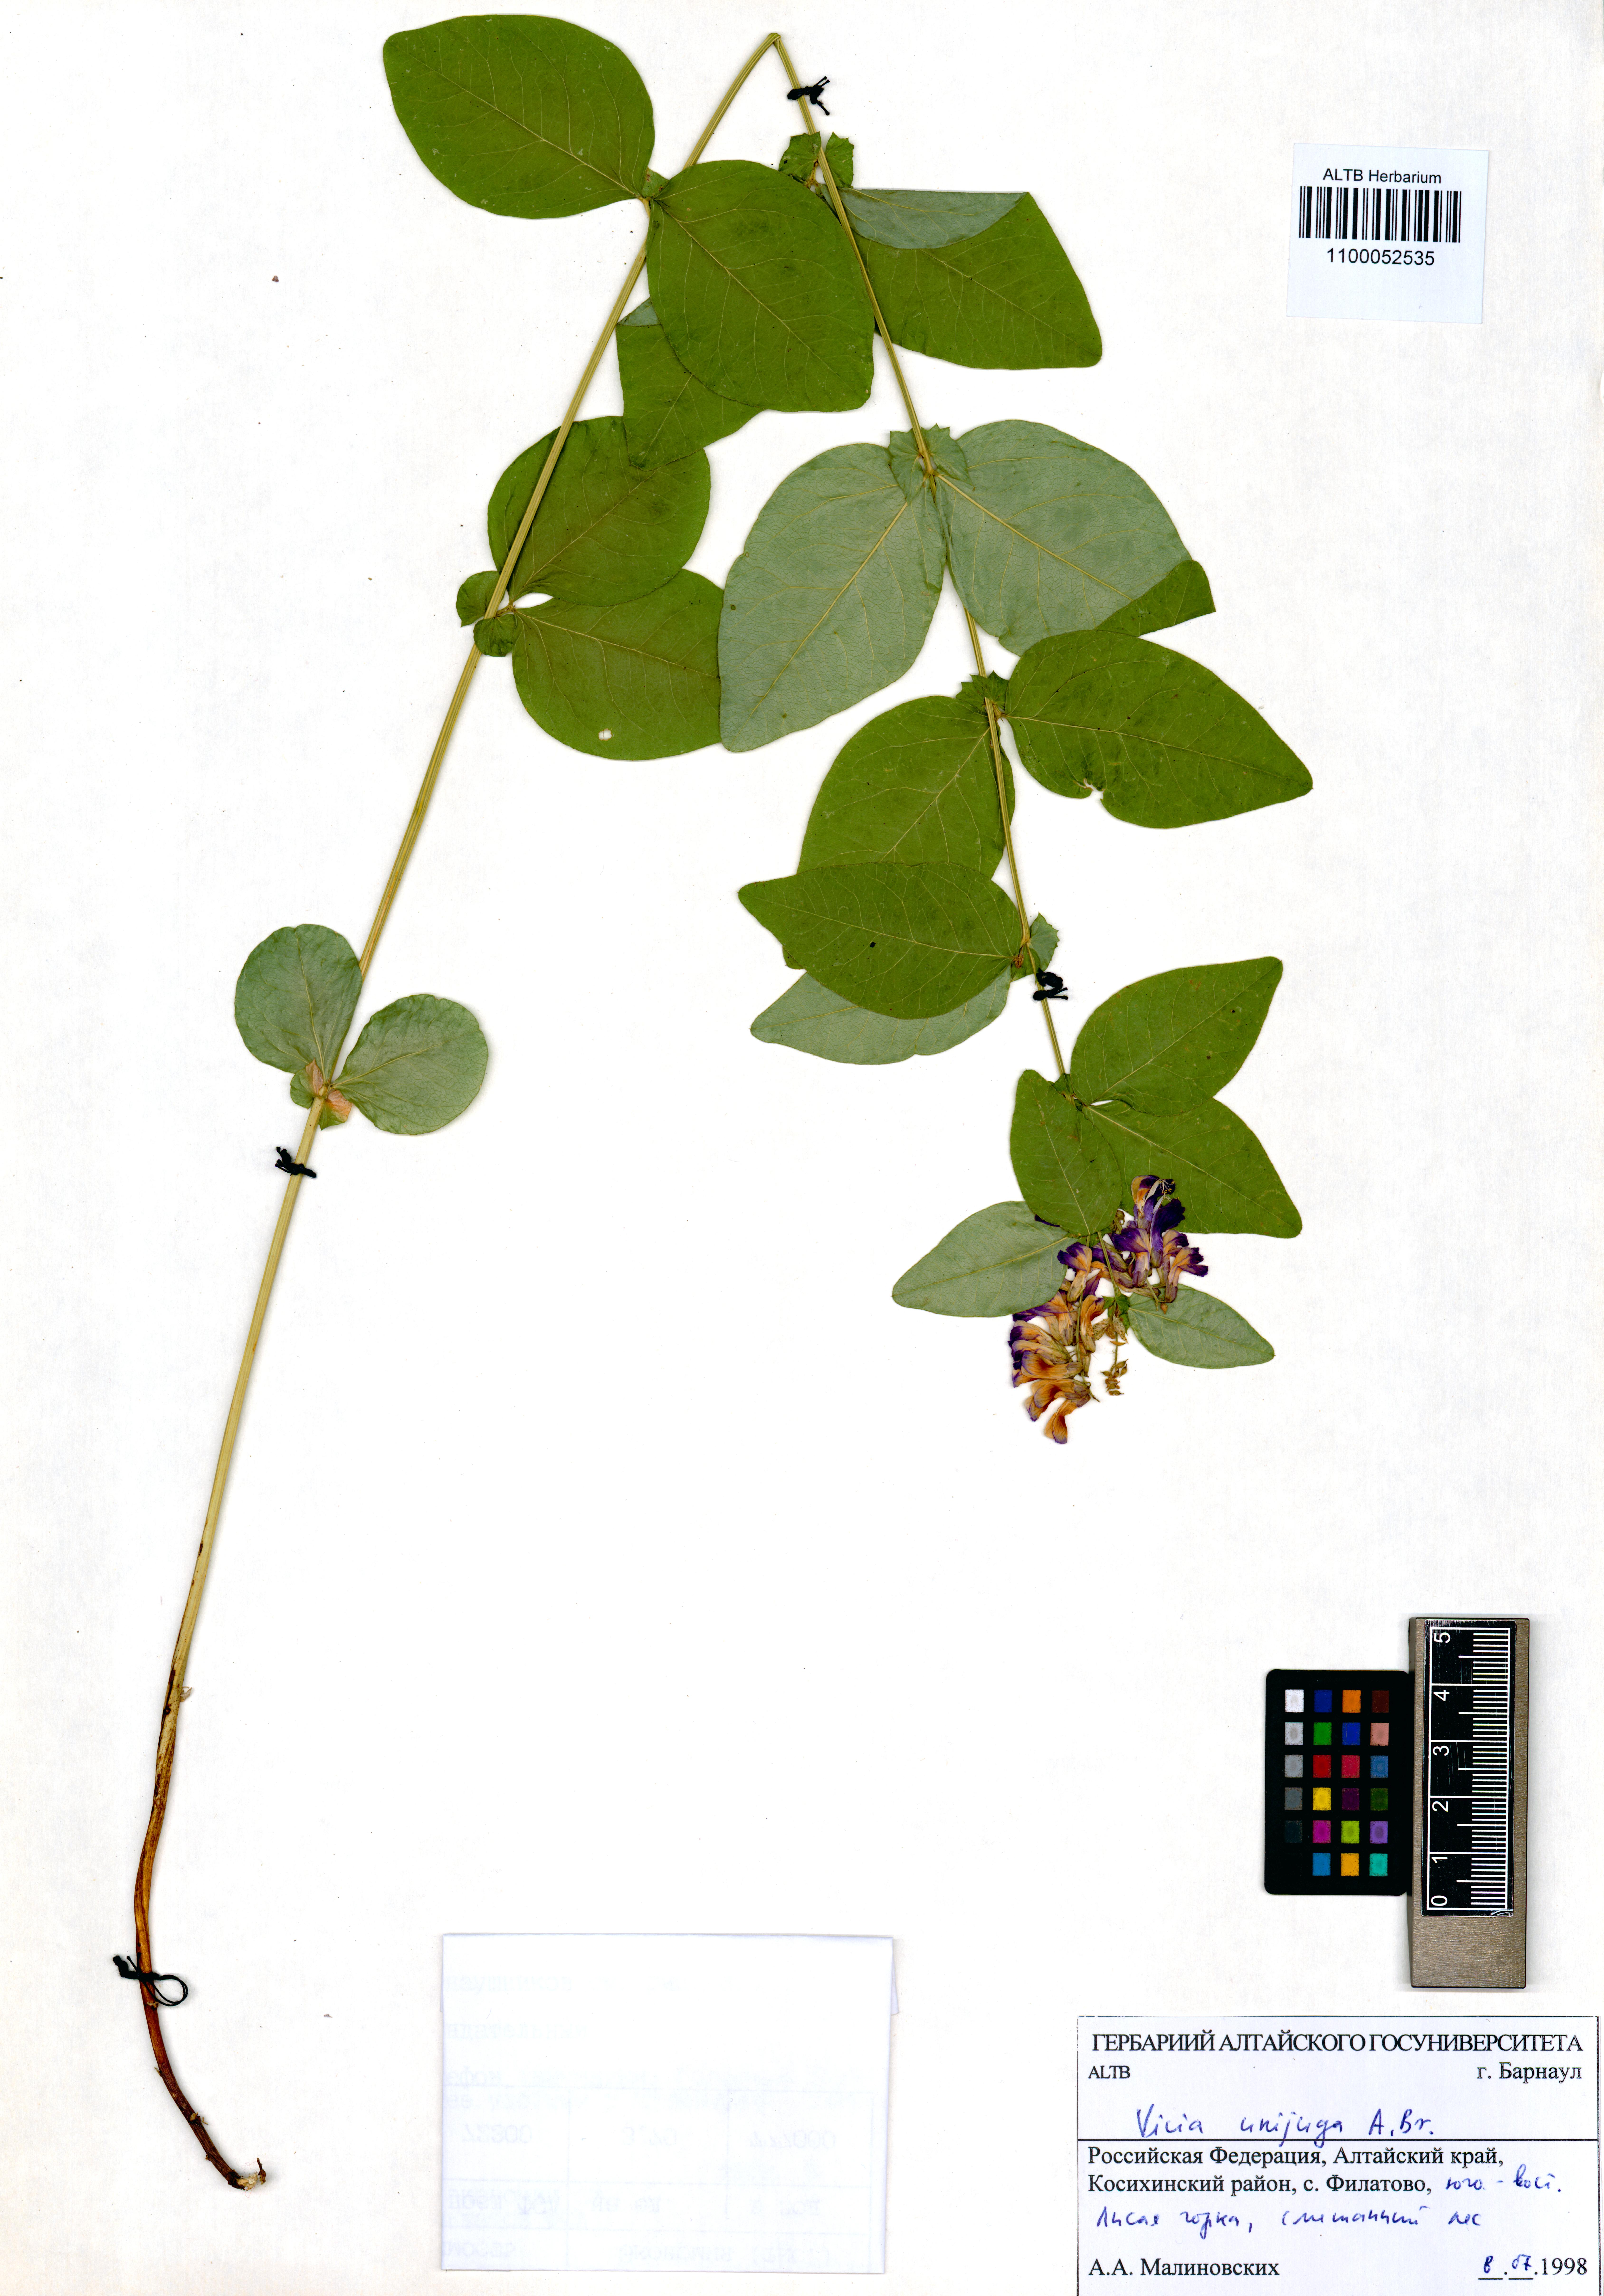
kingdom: Plantae
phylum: Tracheophyta
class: Magnoliopsida
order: Fabales
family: Fabaceae
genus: Vicia
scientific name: Vicia unijuga
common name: Two-leaf vetch
